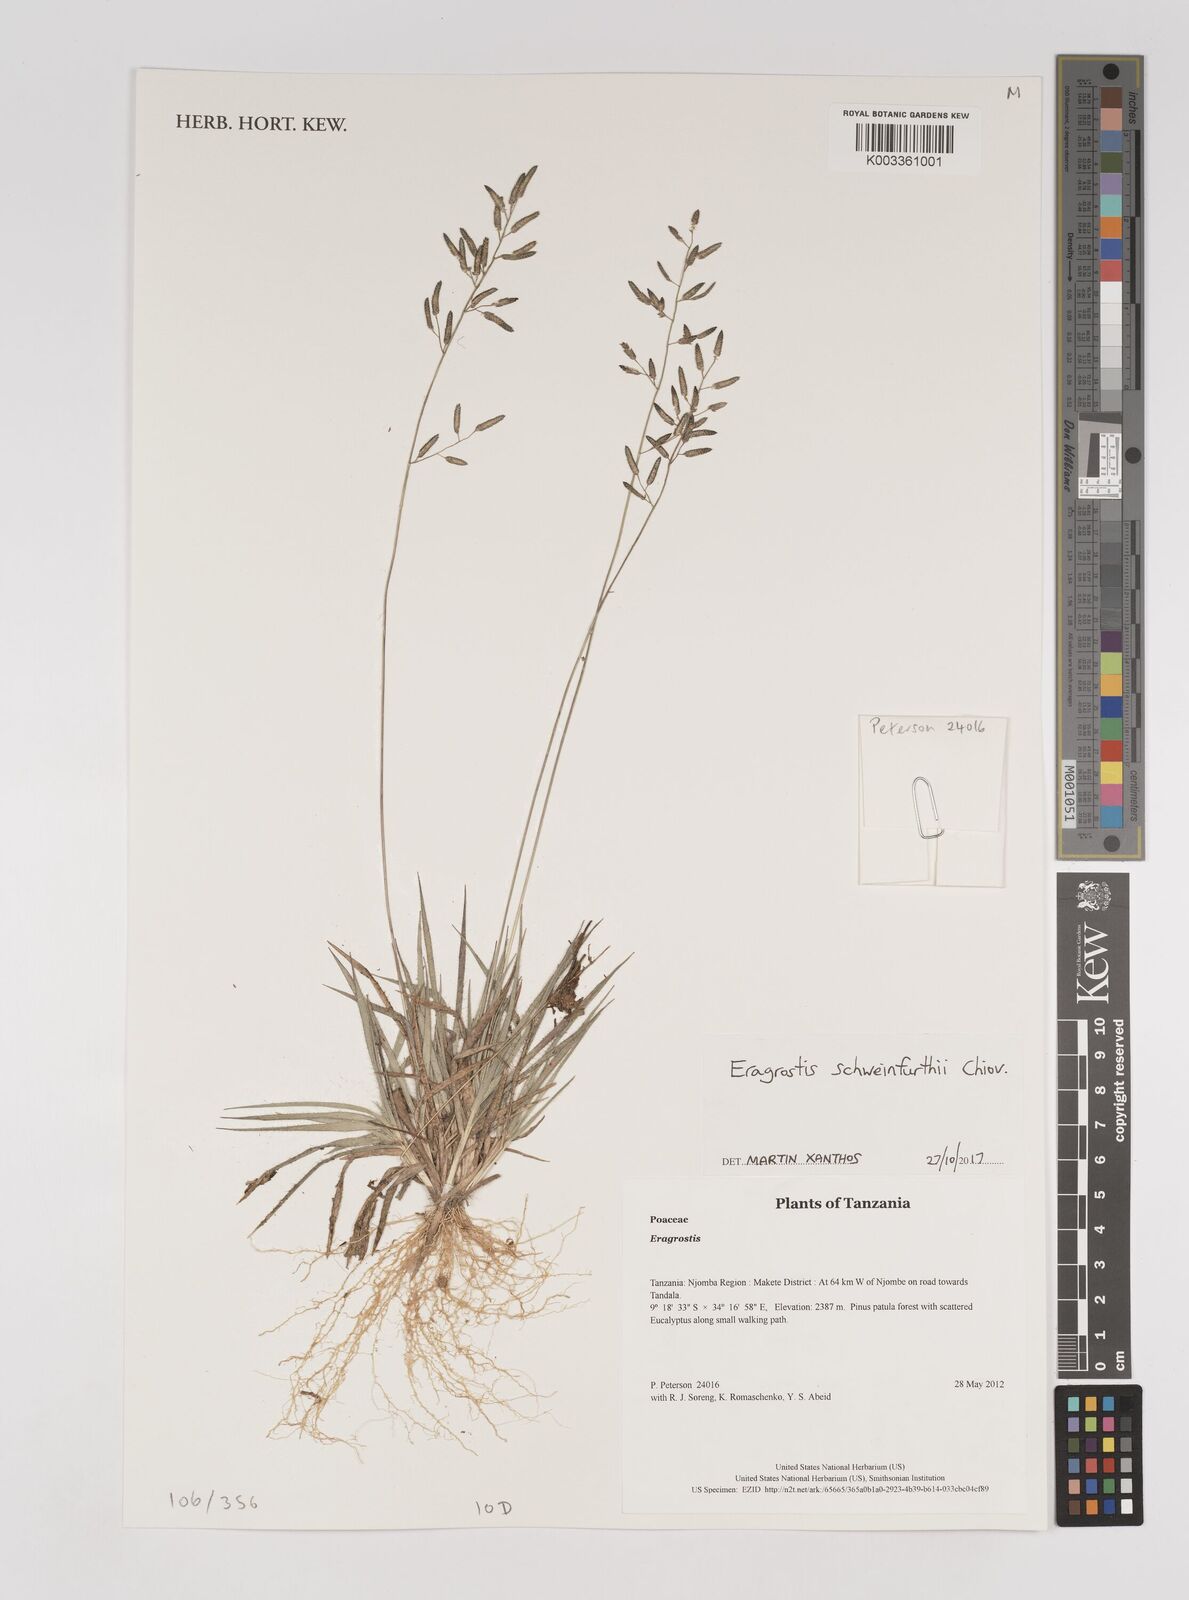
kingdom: Plantae
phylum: Tracheophyta
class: Liliopsida
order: Poales
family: Poaceae
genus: Eragrostis
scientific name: Eragrostis schweinfurthii
